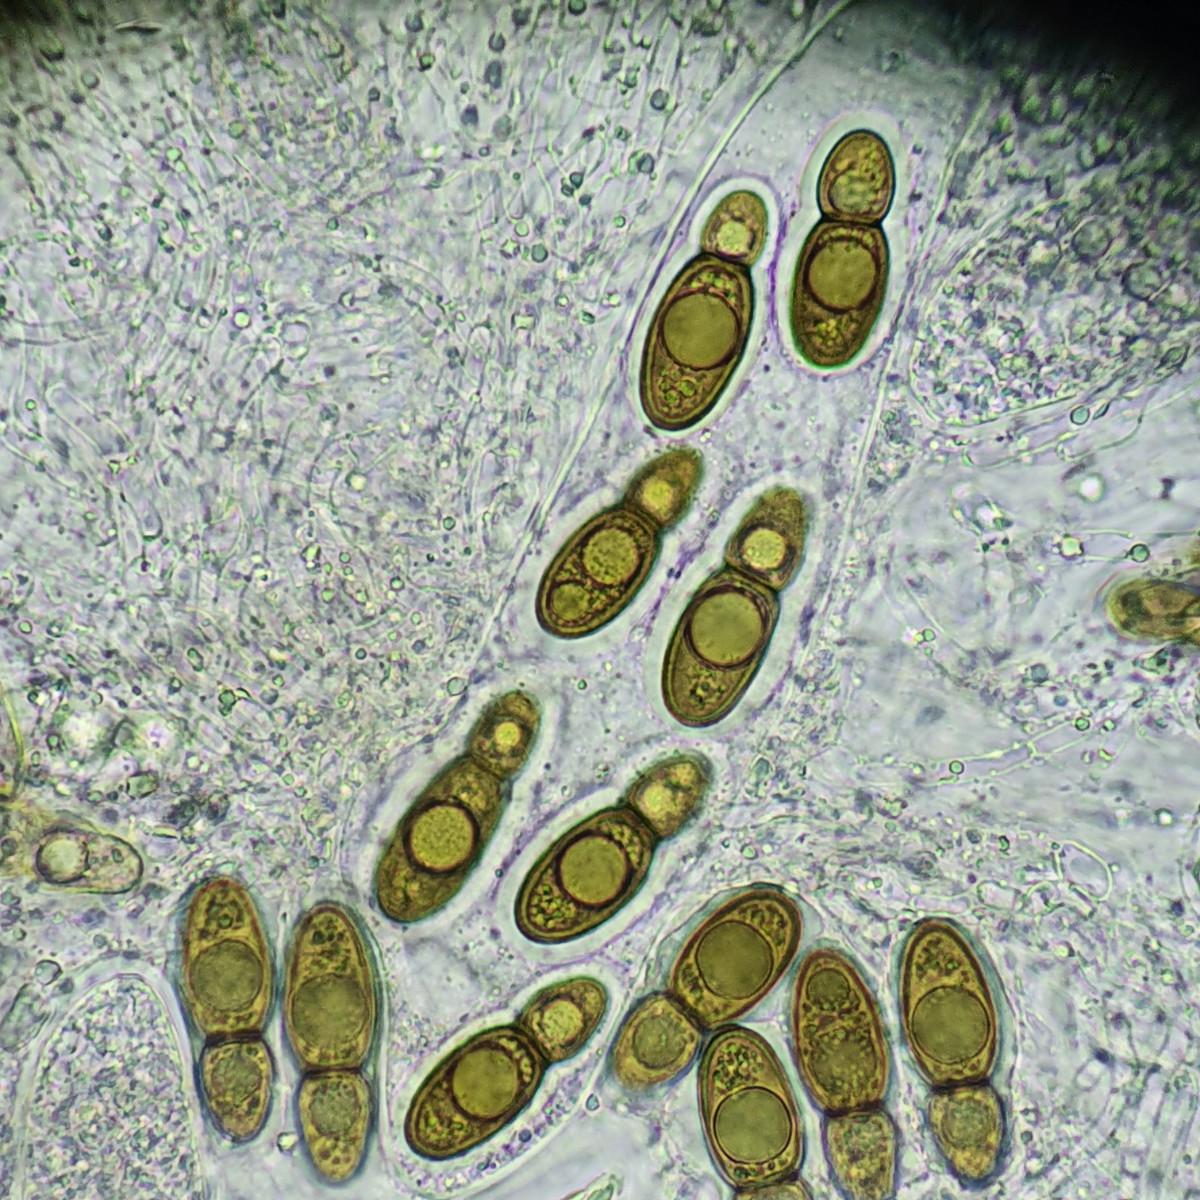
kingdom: Fungi
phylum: Ascomycota
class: Eurotiomycetes
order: Pyrenulales
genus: Splanchospora
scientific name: Splanchospora ampullacea
